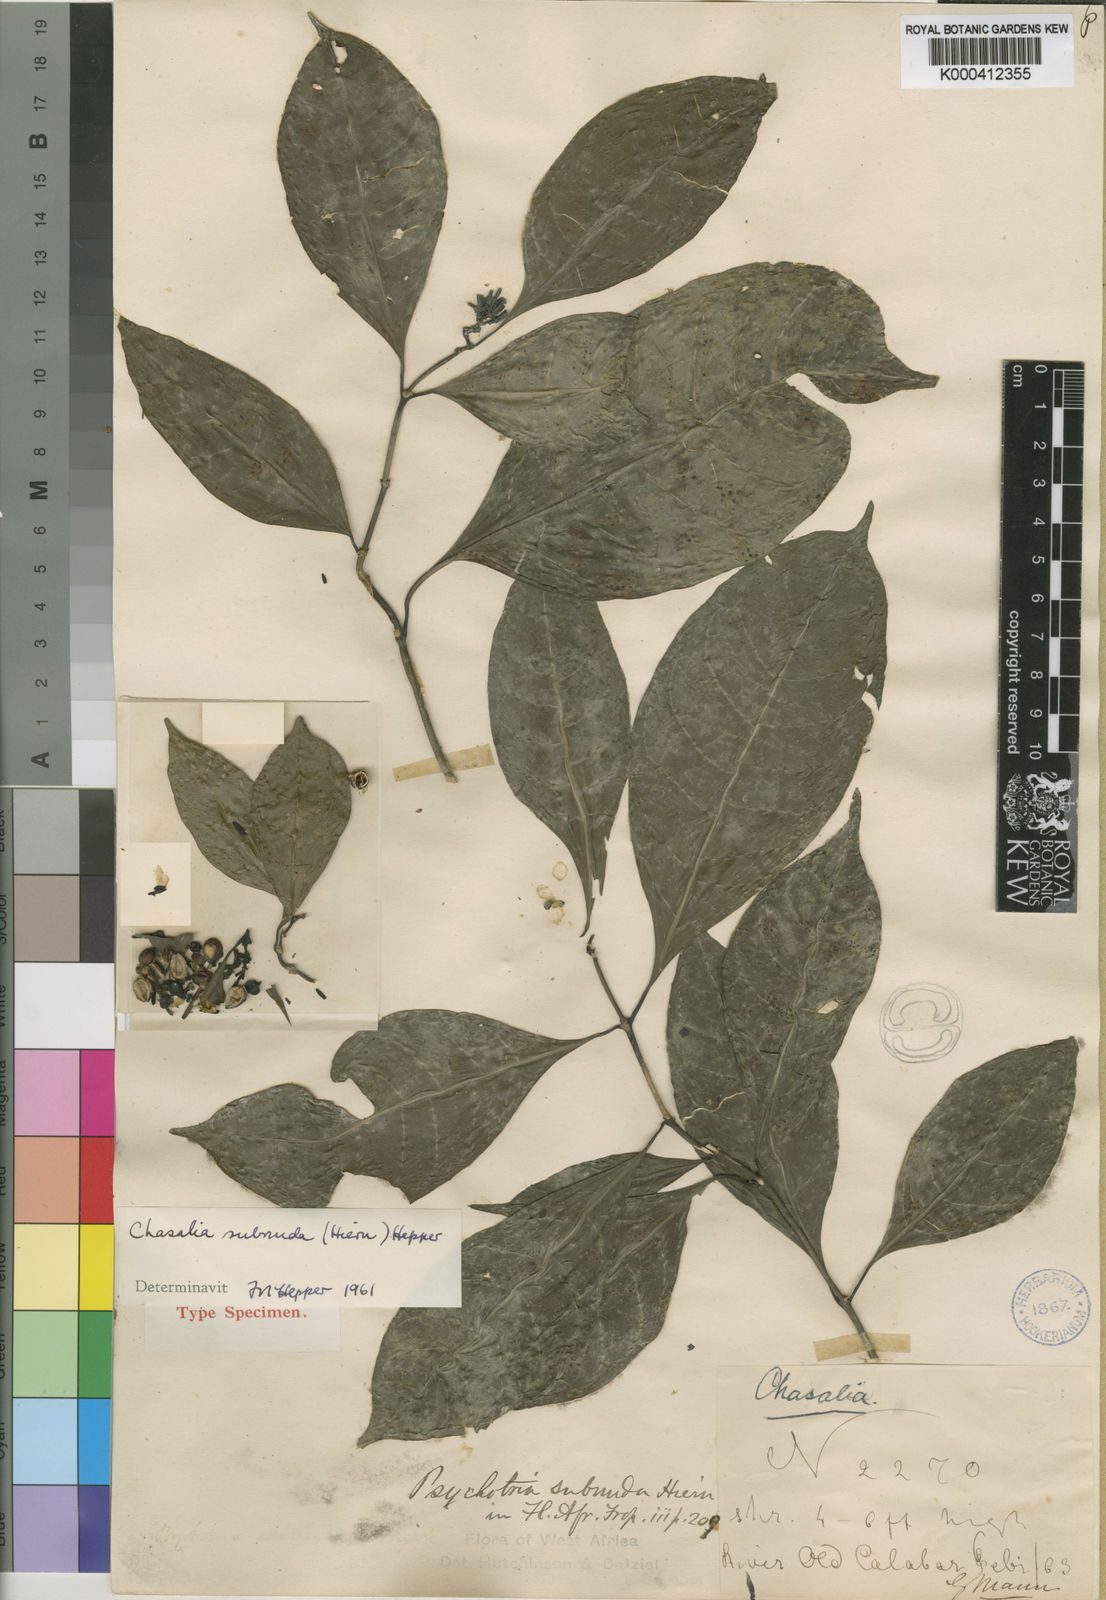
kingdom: Plantae
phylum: Tracheophyta
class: Magnoliopsida
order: Gentianales
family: Rubiaceae
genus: Chassalia
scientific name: Chassalia subnuda
